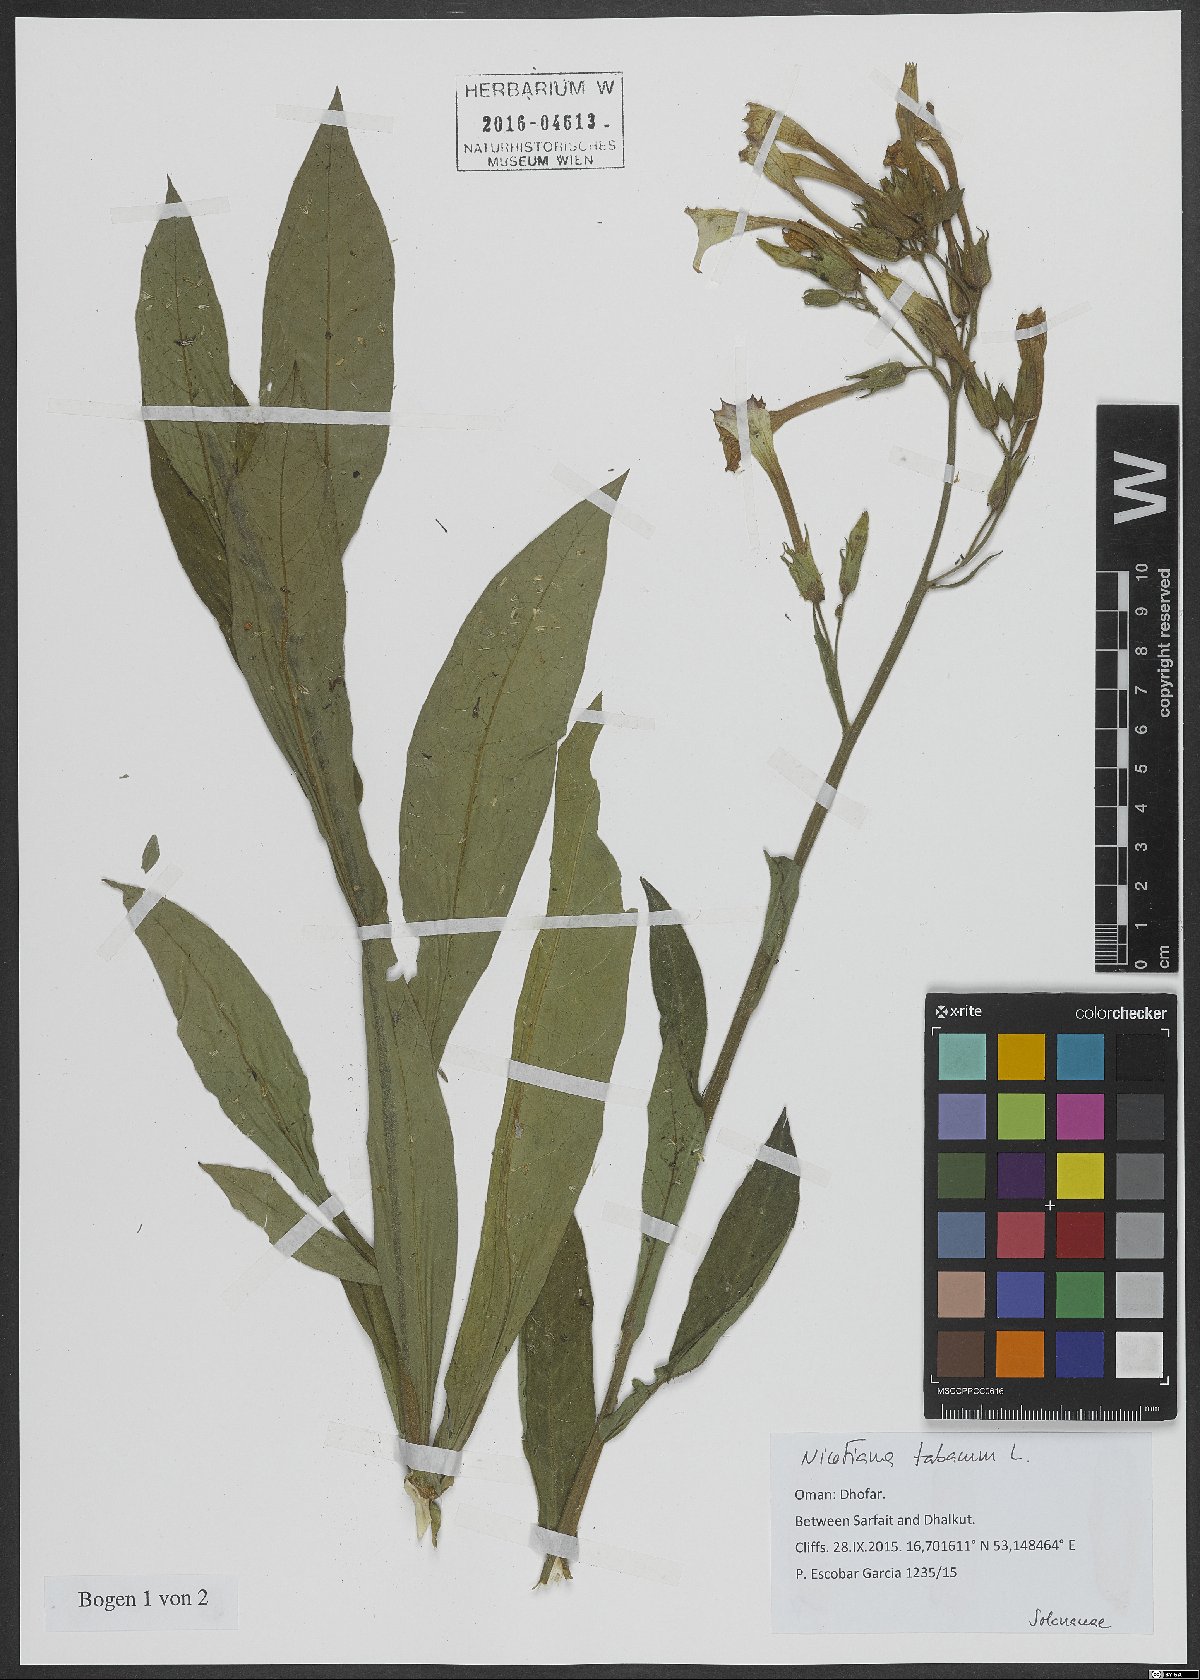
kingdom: Plantae
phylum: Tracheophyta
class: Magnoliopsida
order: Solanales
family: Solanaceae
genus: Nicotiana
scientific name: Nicotiana tabacum
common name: Tobacco
